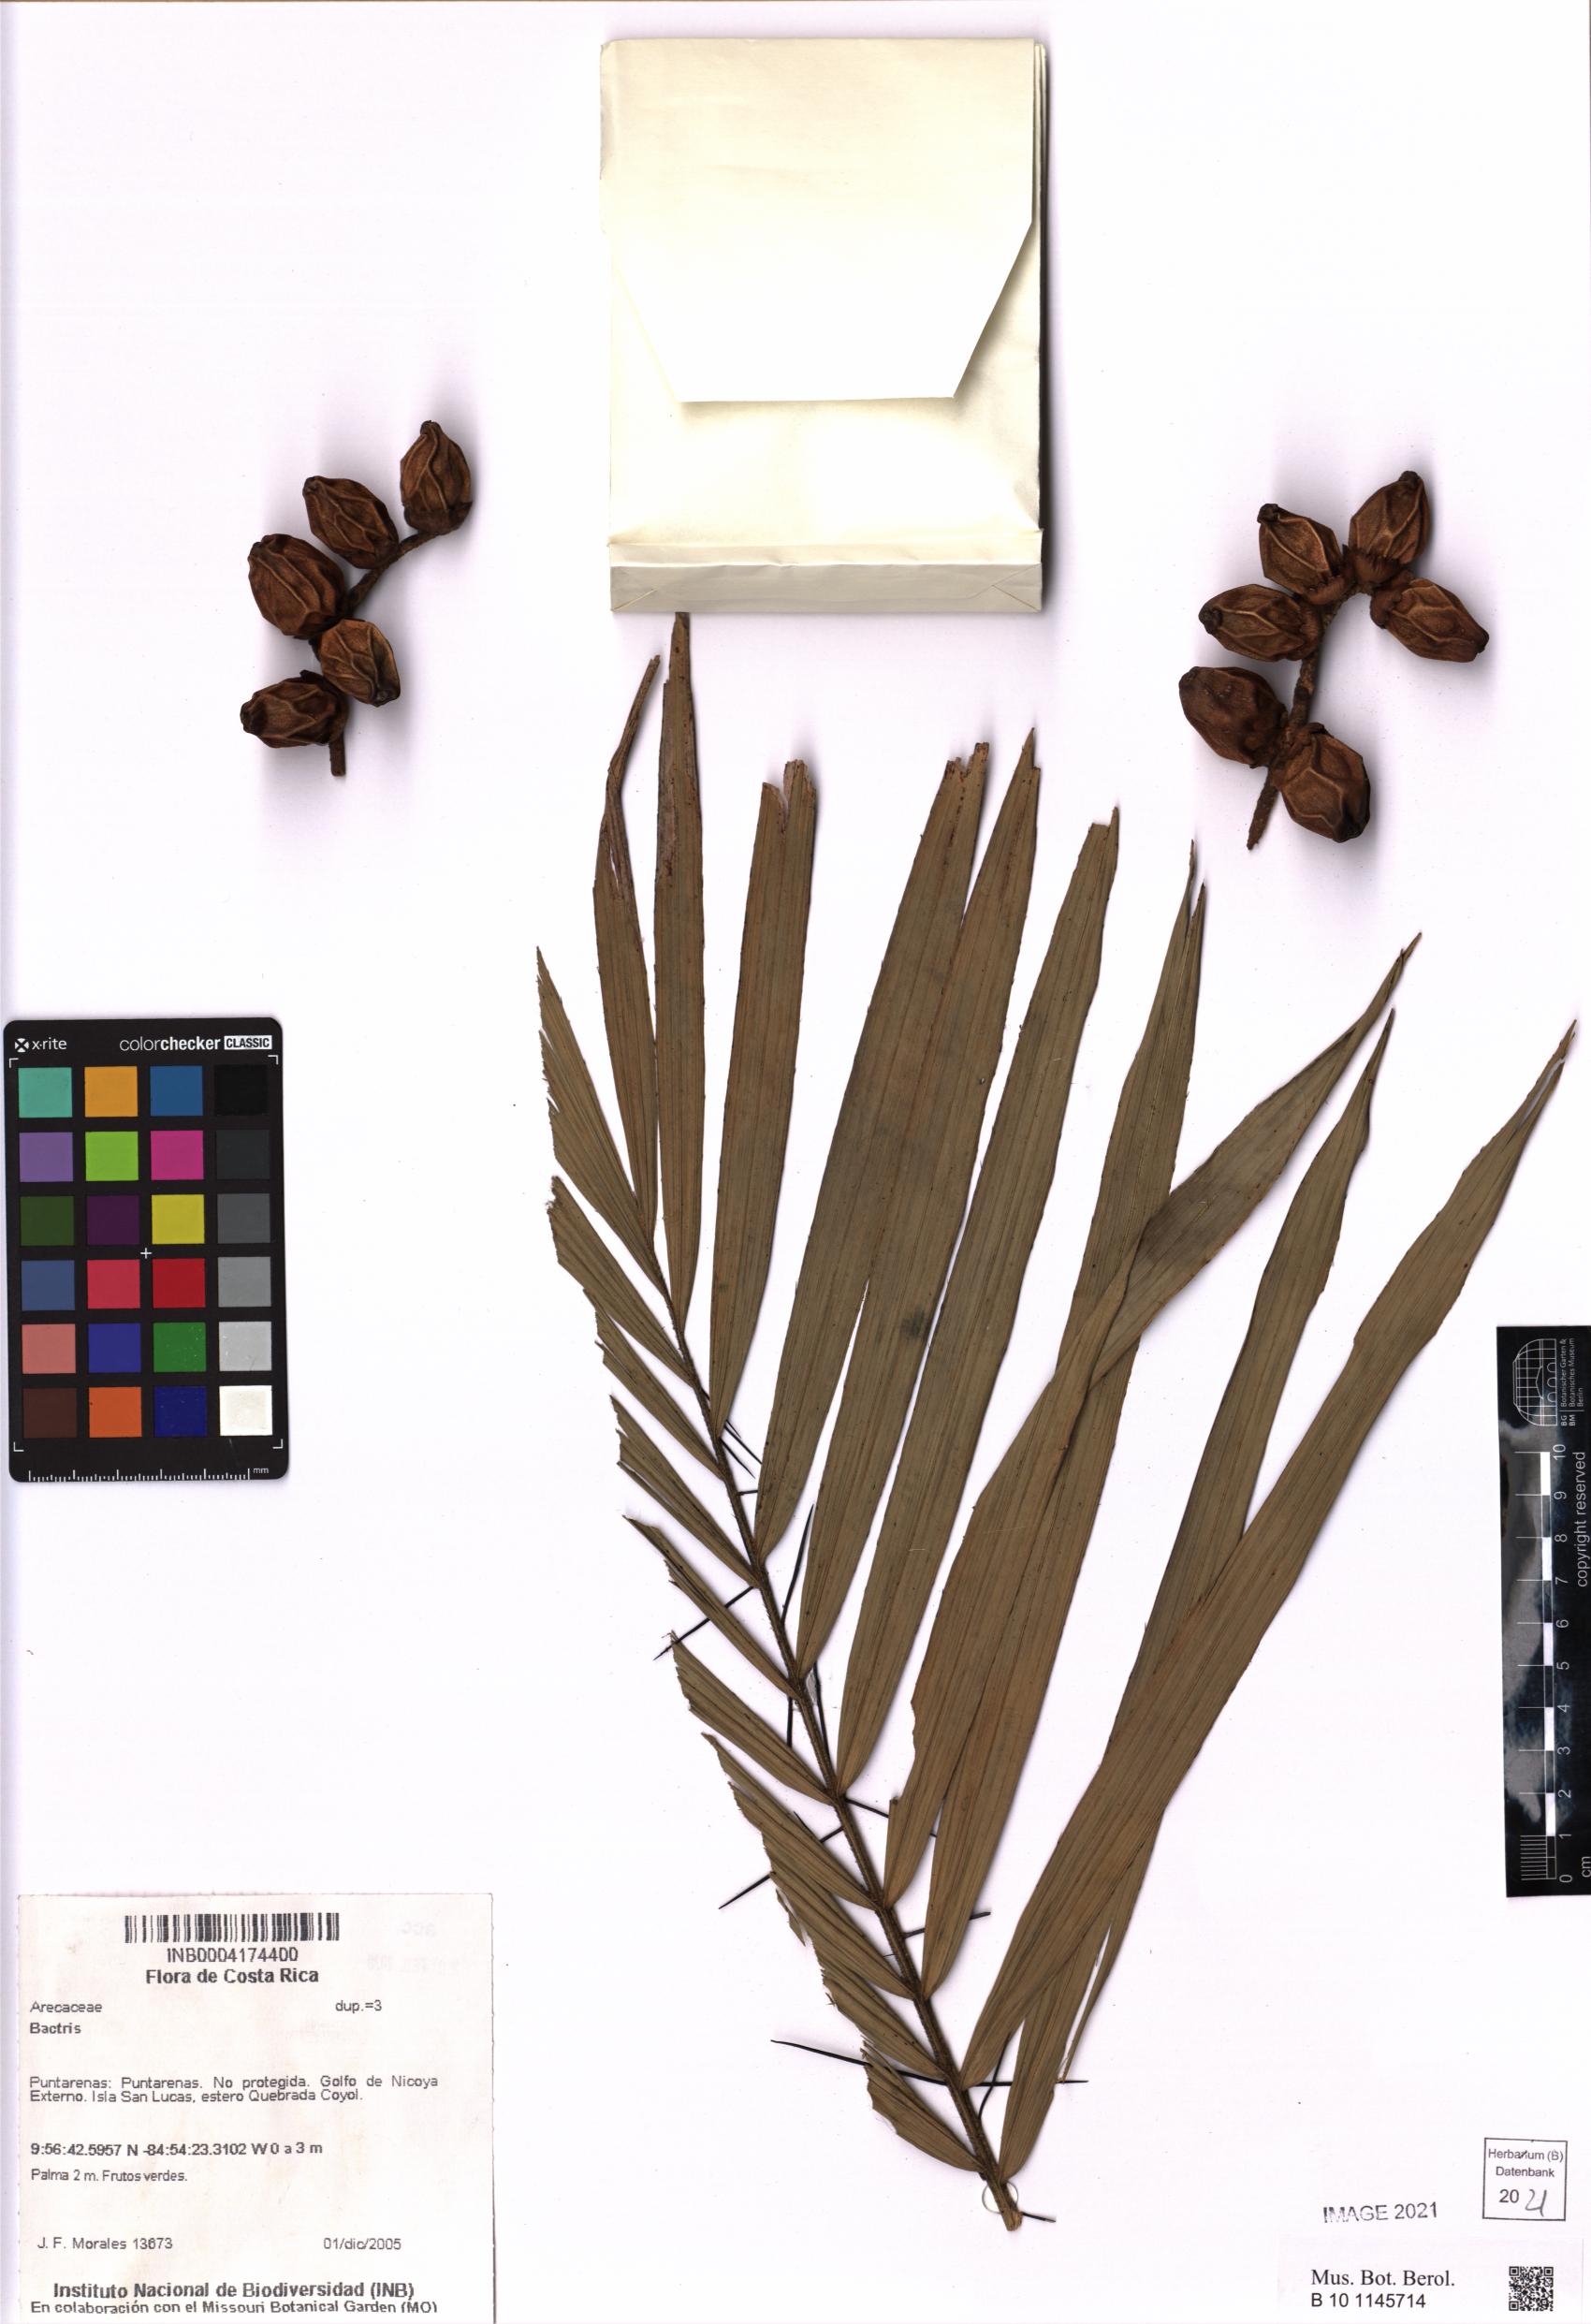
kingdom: Plantae
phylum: Tracheophyta
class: Liliopsida
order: Arecales
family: Arecaceae
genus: Bactris
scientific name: Bactris
